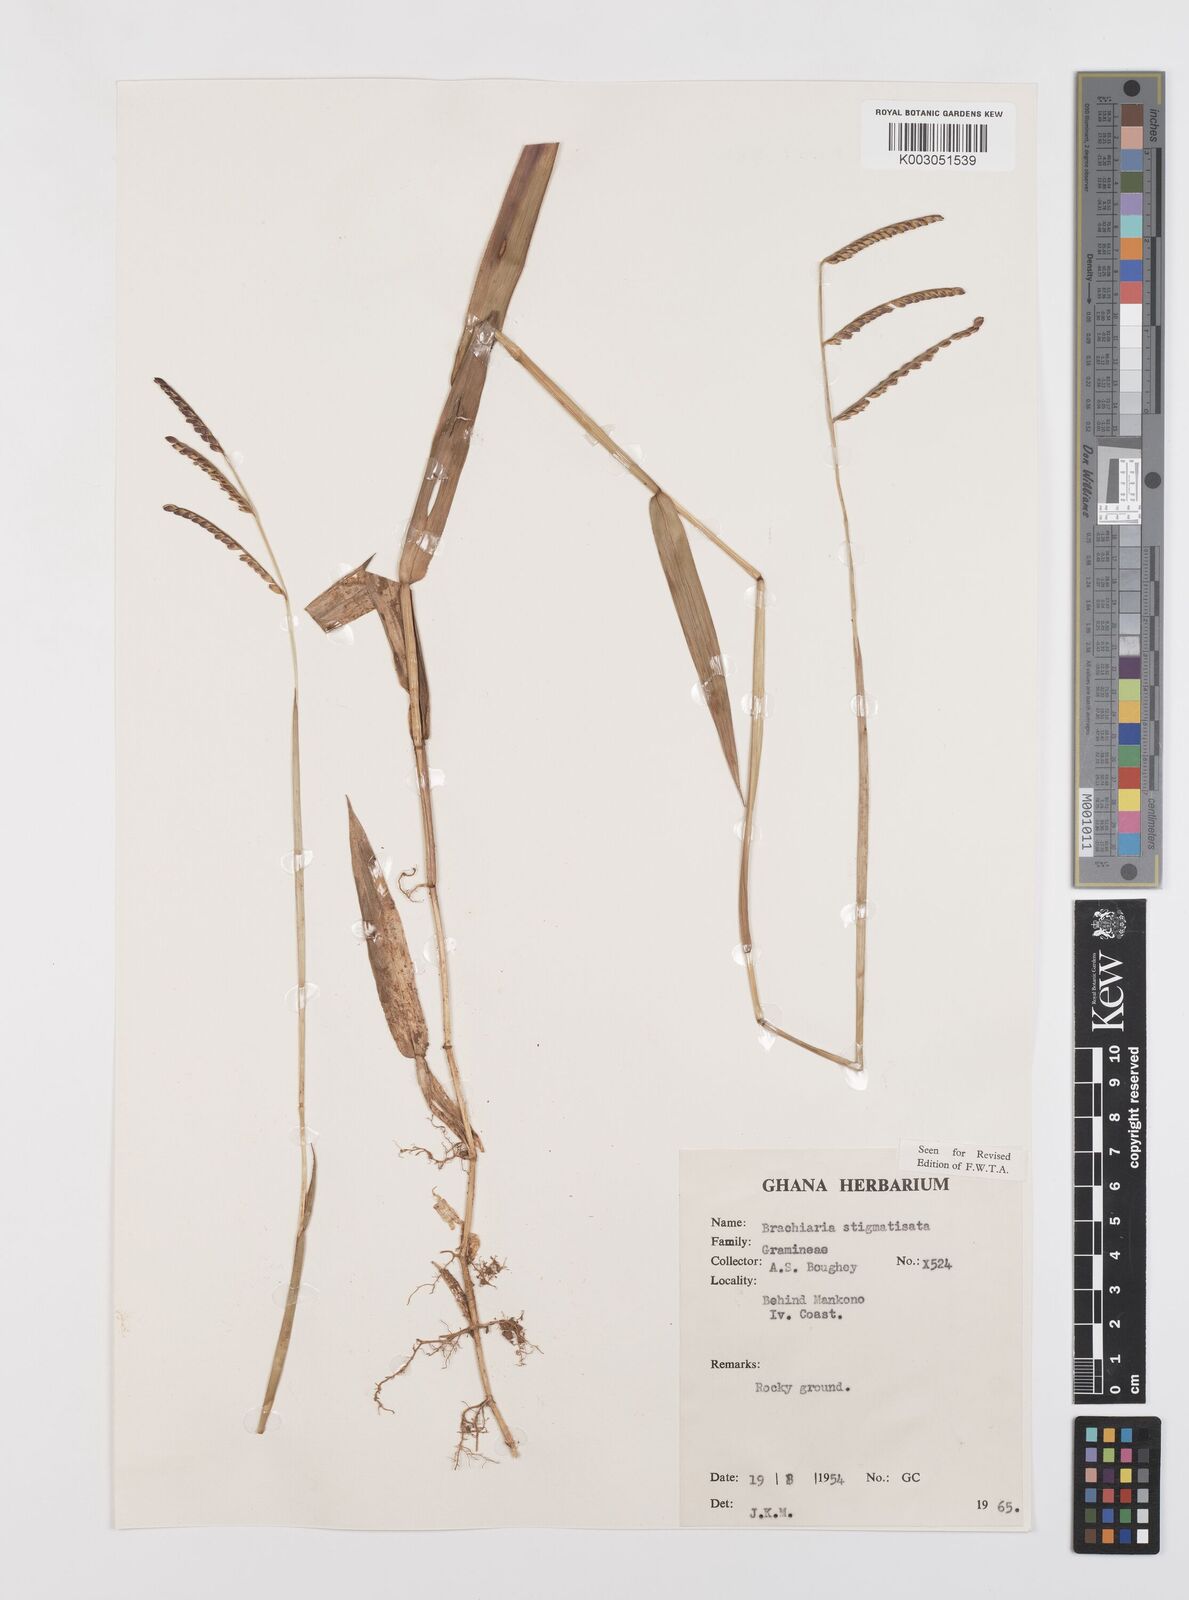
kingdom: Plantae
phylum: Tracheophyta
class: Liliopsida
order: Poales
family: Poaceae
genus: Urochloa
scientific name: Urochloa stigmatisata
